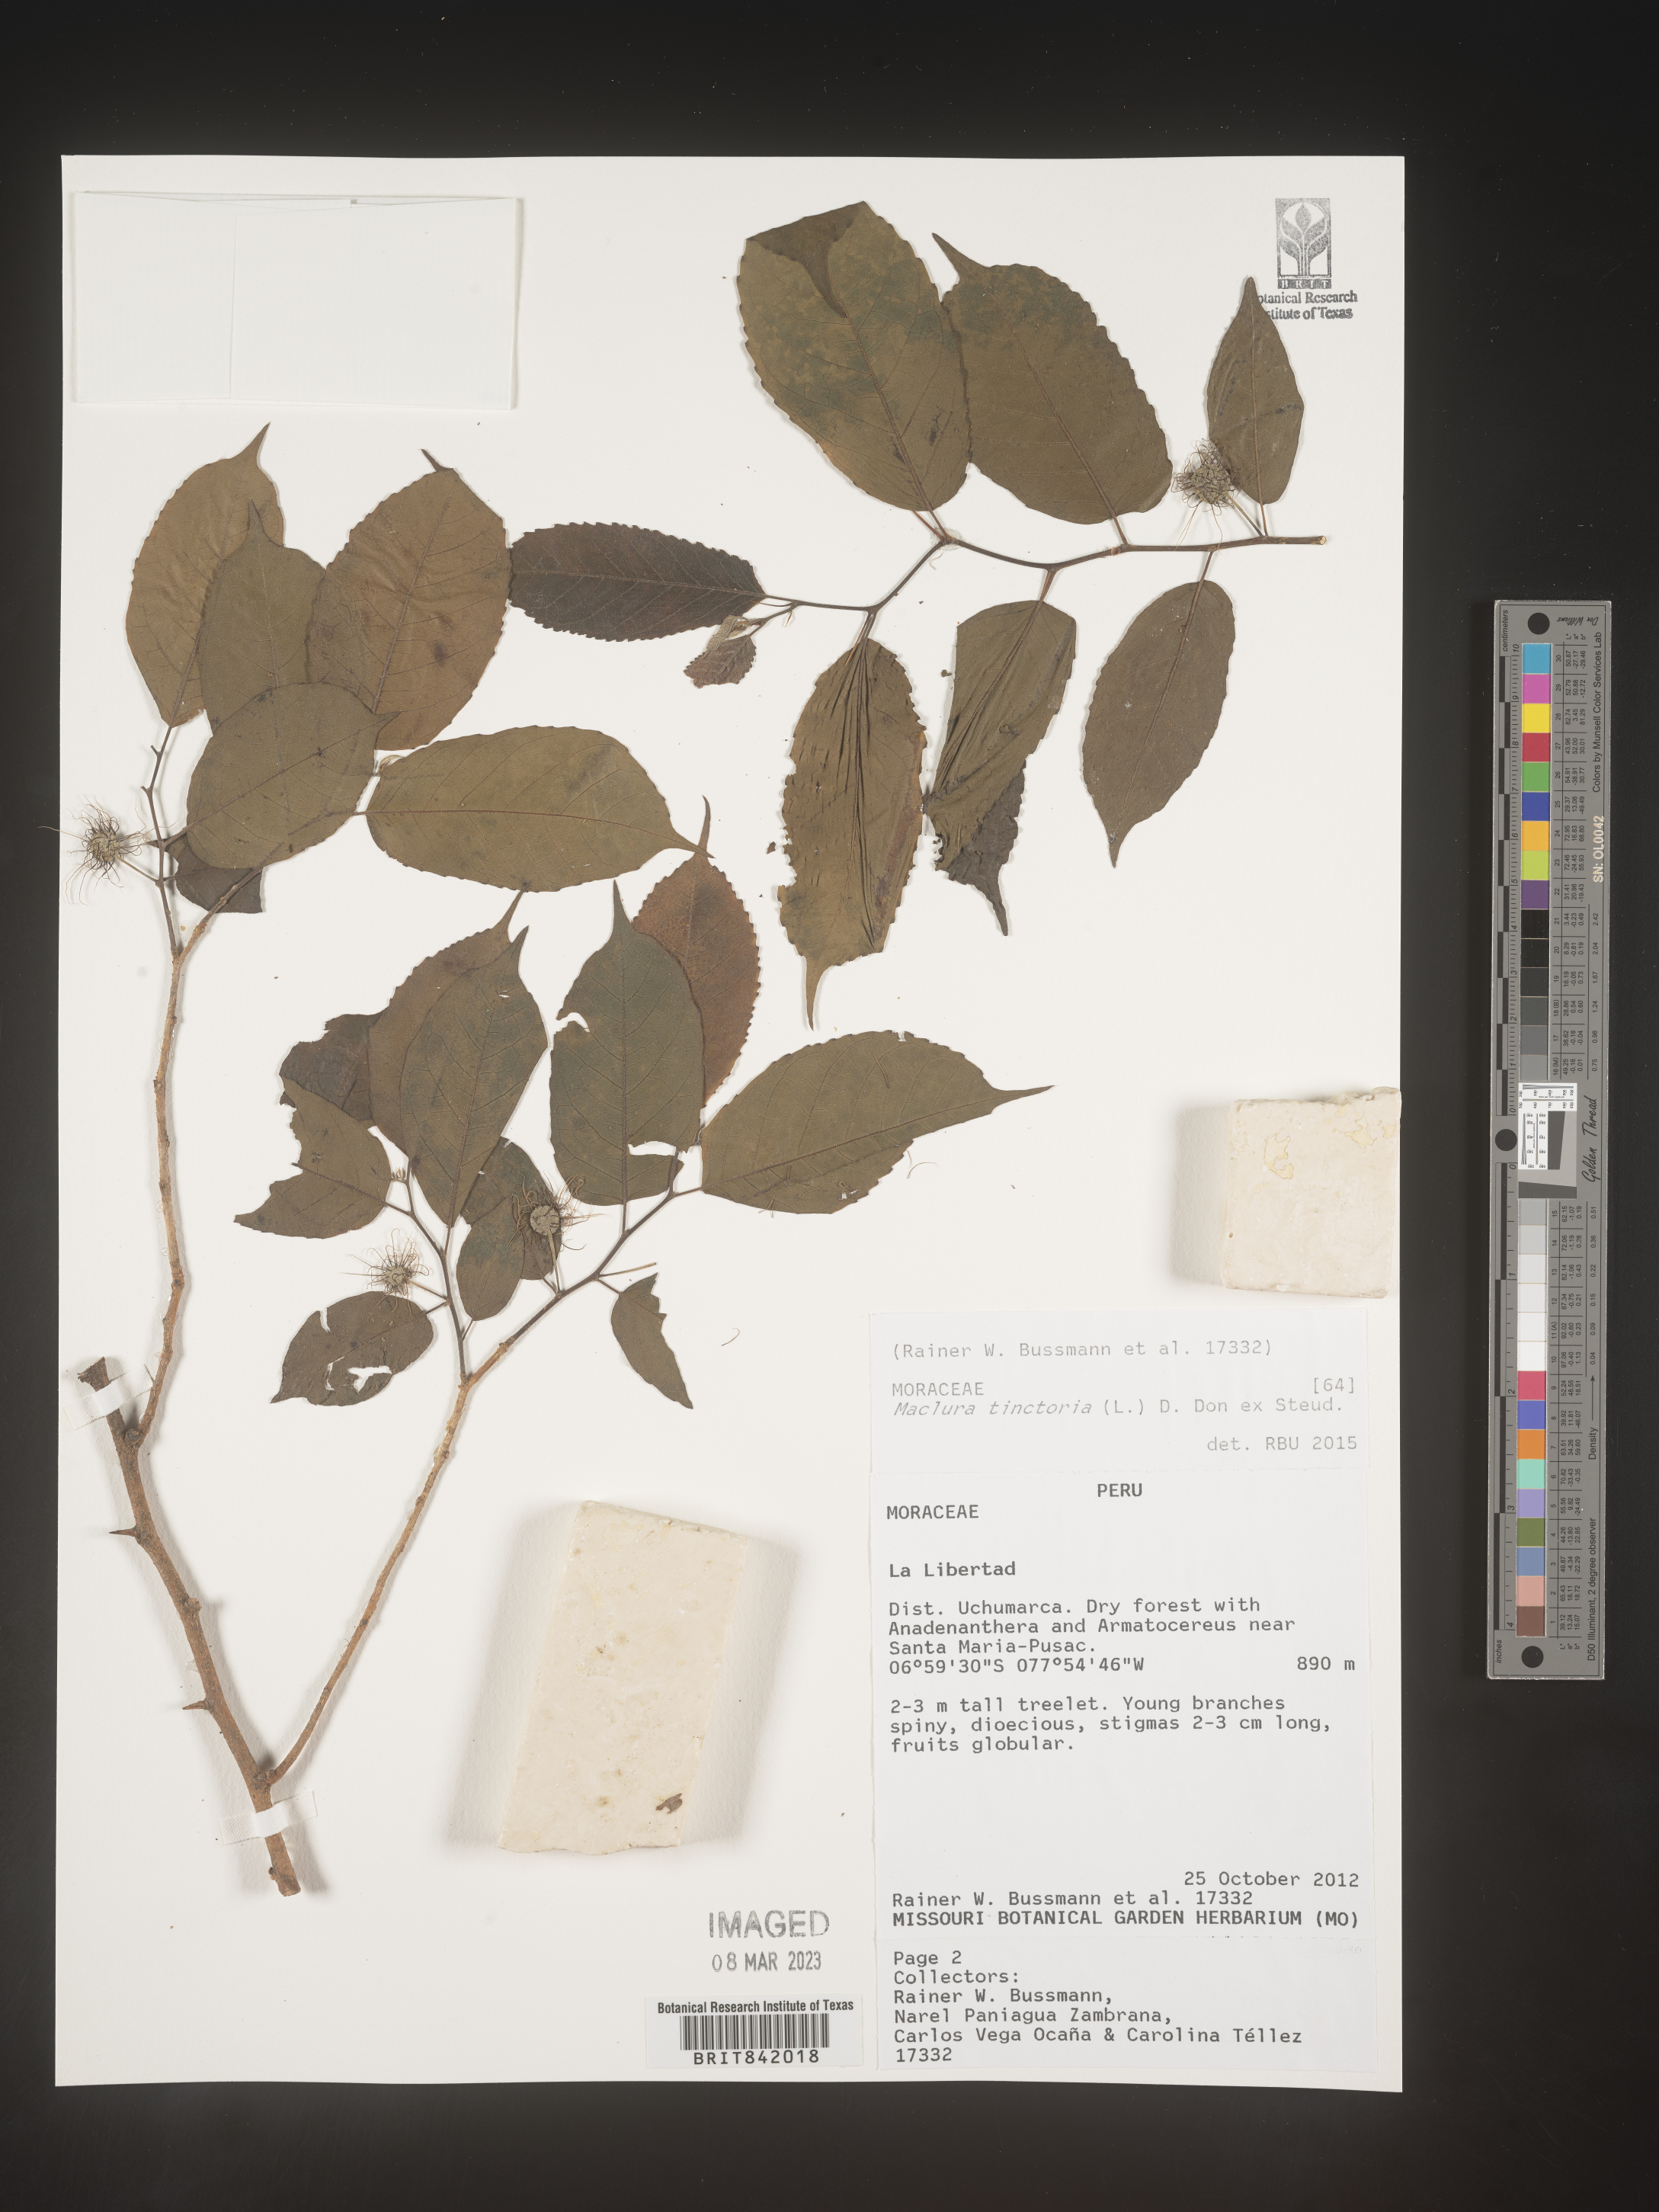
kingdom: Plantae
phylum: Tracheophyta
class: Magnoliopsida
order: Rosales
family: Moraceae
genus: Maclura
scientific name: Maclura tinctoria
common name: Old fustic
